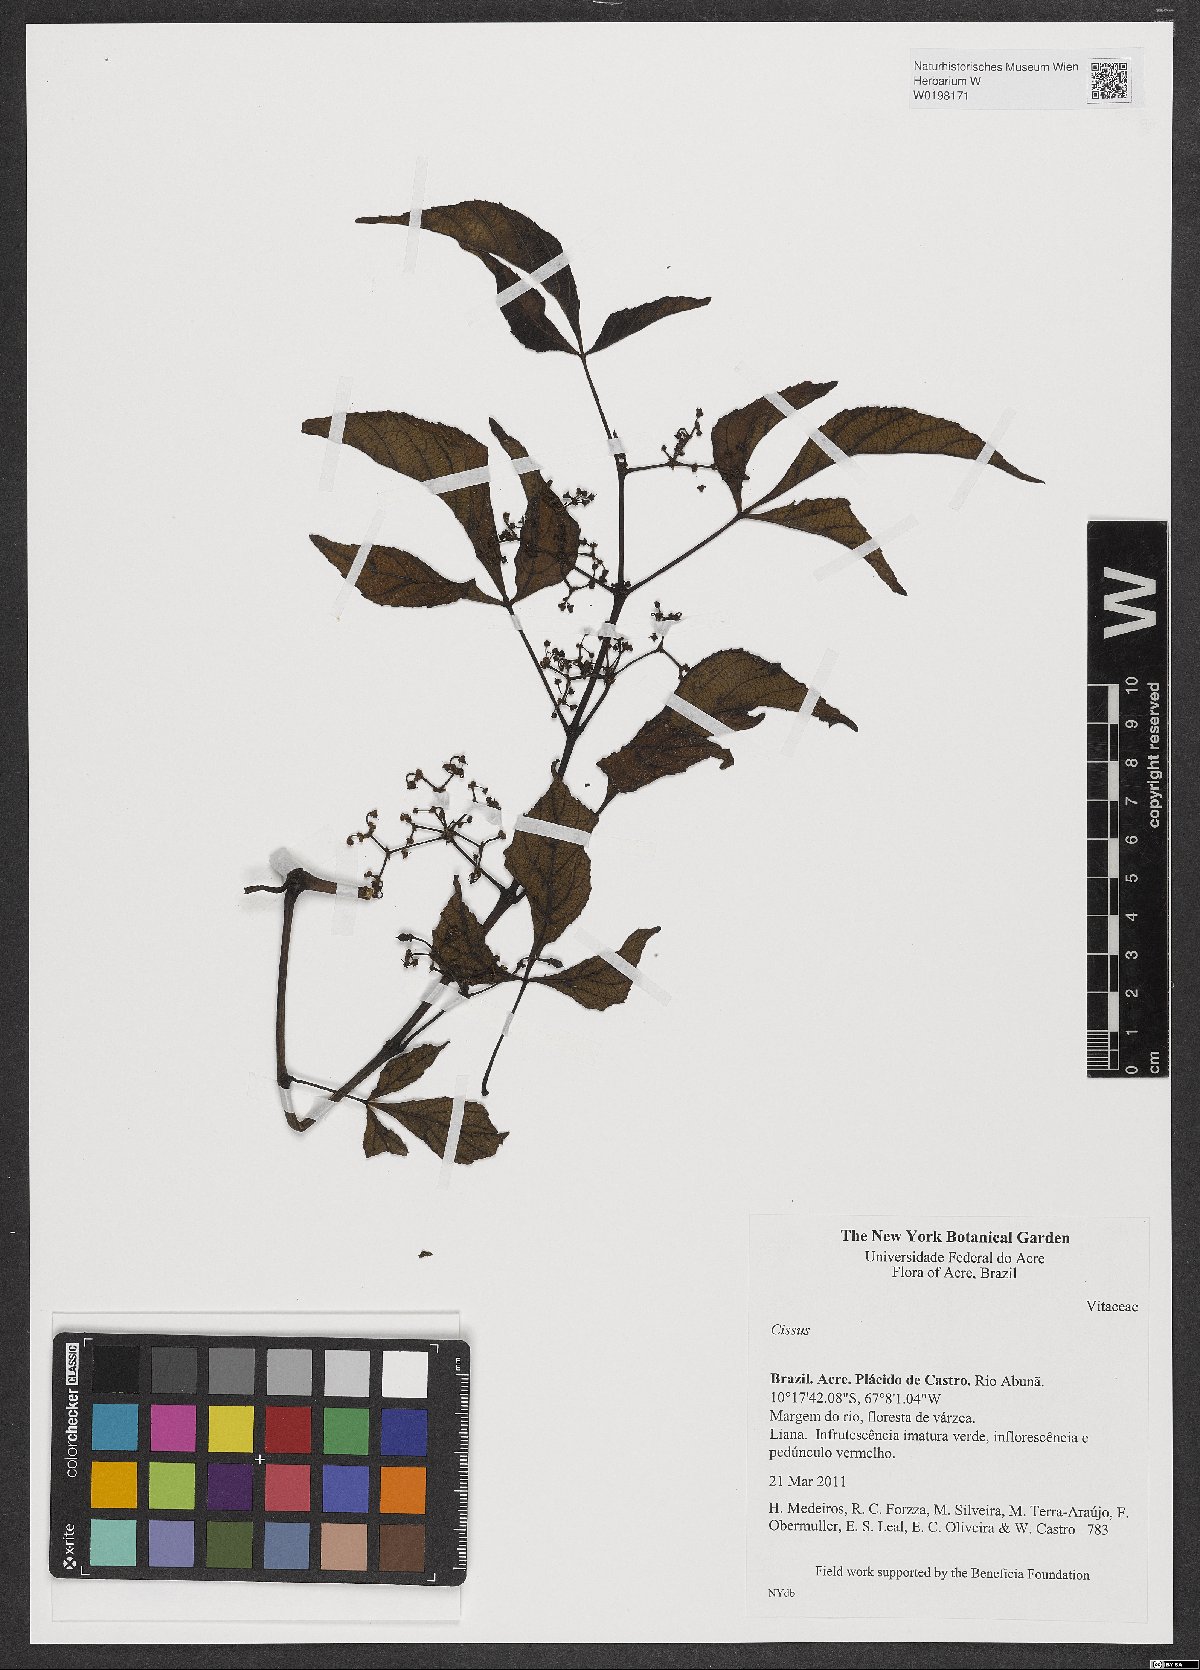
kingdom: Plantae
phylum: Tracheophyta
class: Magnoliopsida
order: Vitales
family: Vitaceae
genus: Cissus
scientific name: Cissus
